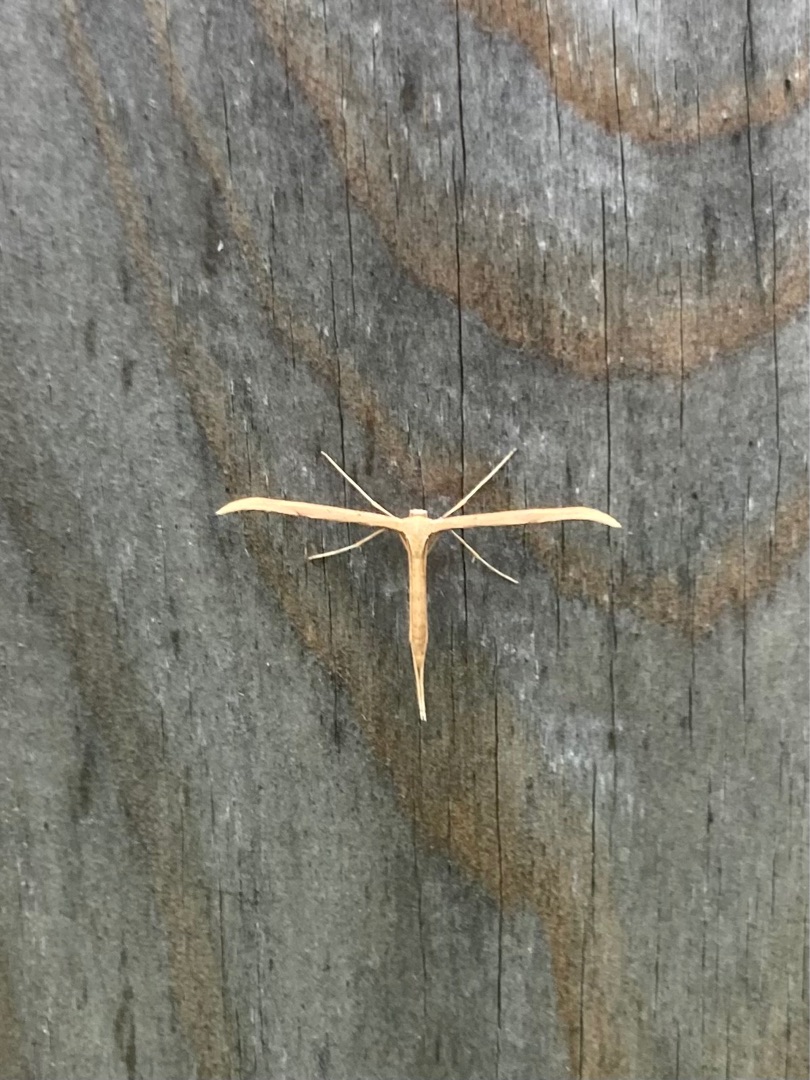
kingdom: Animalia
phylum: Arthropoda
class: Insecta
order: Lepidoptera
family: Pterophoridae
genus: Emmelina
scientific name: Emmelina monodactyla
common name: Snerlefjermøl
